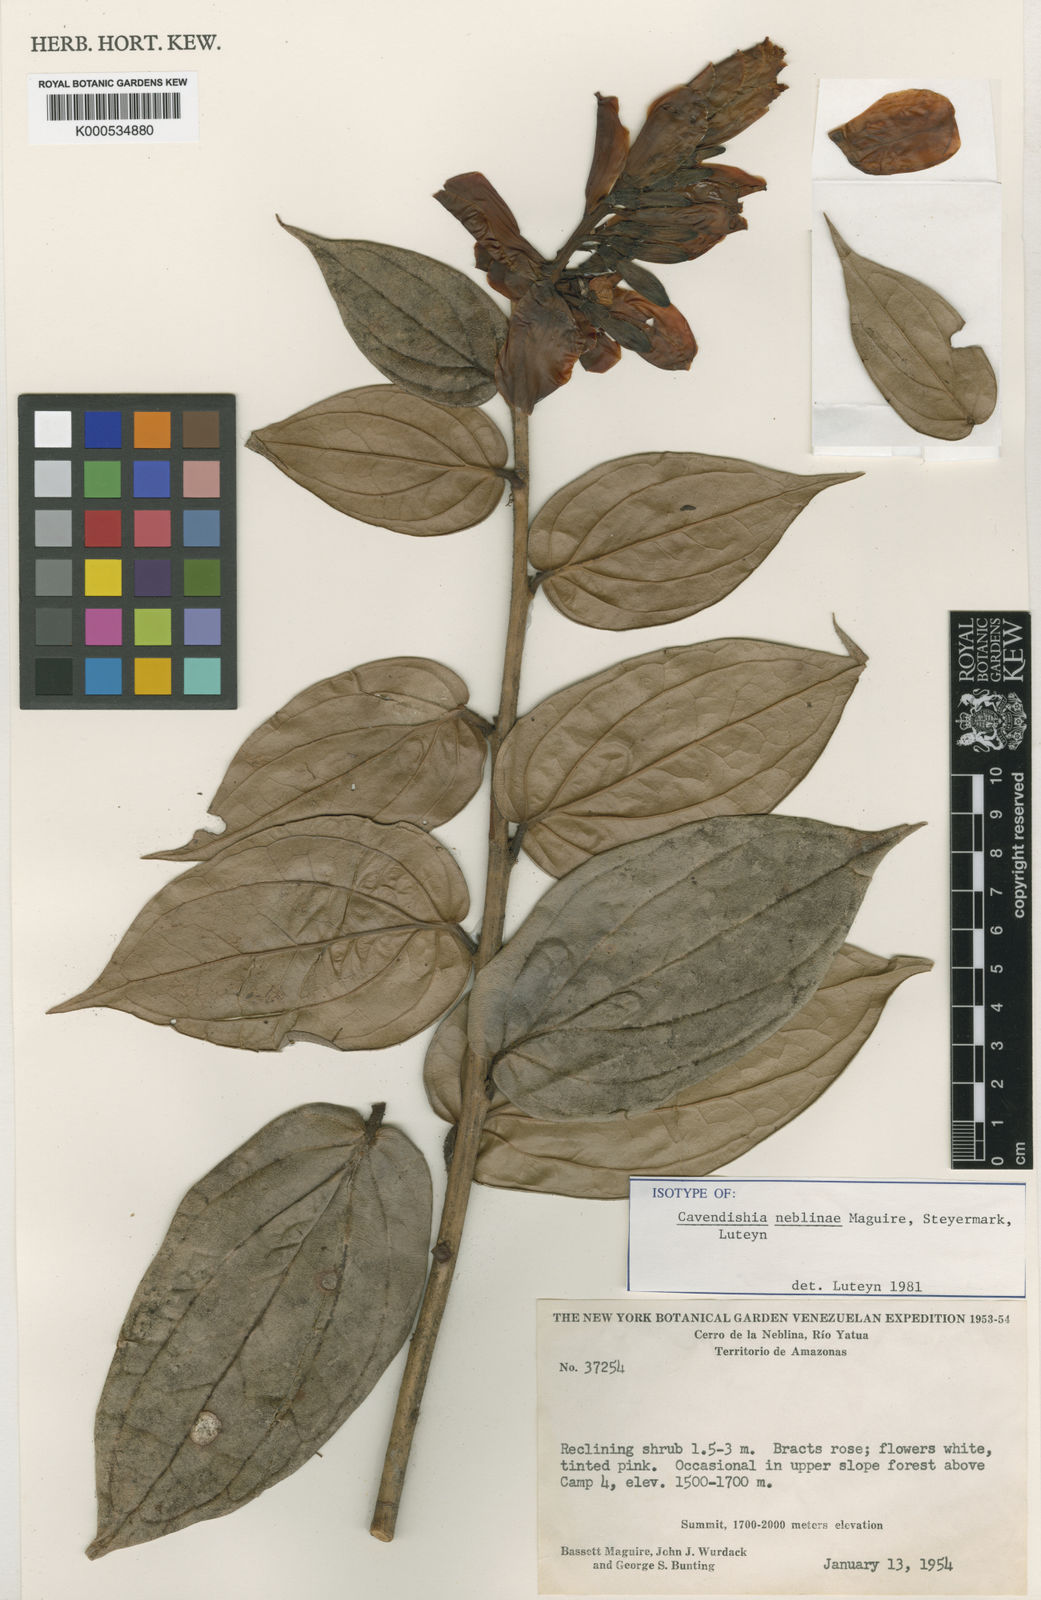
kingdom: Plantae
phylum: Tracheophyta
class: Magnoliopsida
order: Ericales
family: Ericaceae
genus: Cavendishia
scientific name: Cavendishia neblinae
